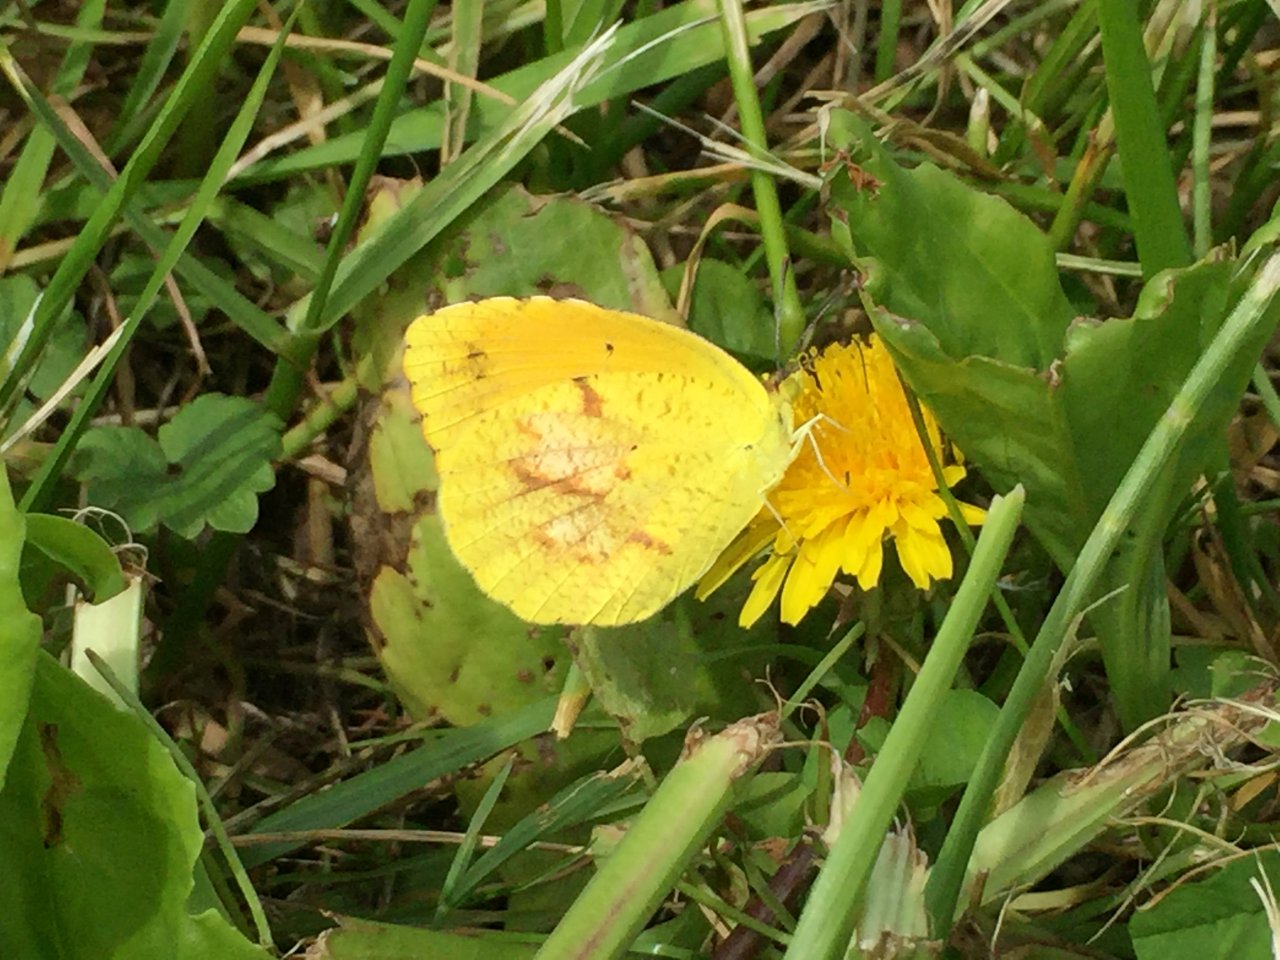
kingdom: Animalia
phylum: Arthropoda
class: Insecta
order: Lepidoptera
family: Pieridae
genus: Abaeis
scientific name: Abaeis nicippe
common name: Sleepy Orange
